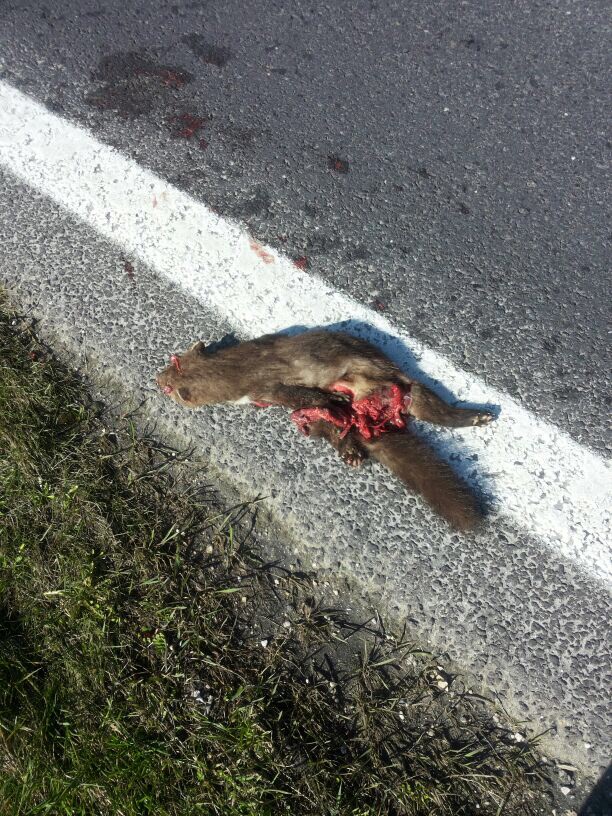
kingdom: Animalia
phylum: Chordata
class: Mammalia
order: Carnivora
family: Mustelidae
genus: Martes
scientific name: Martes
